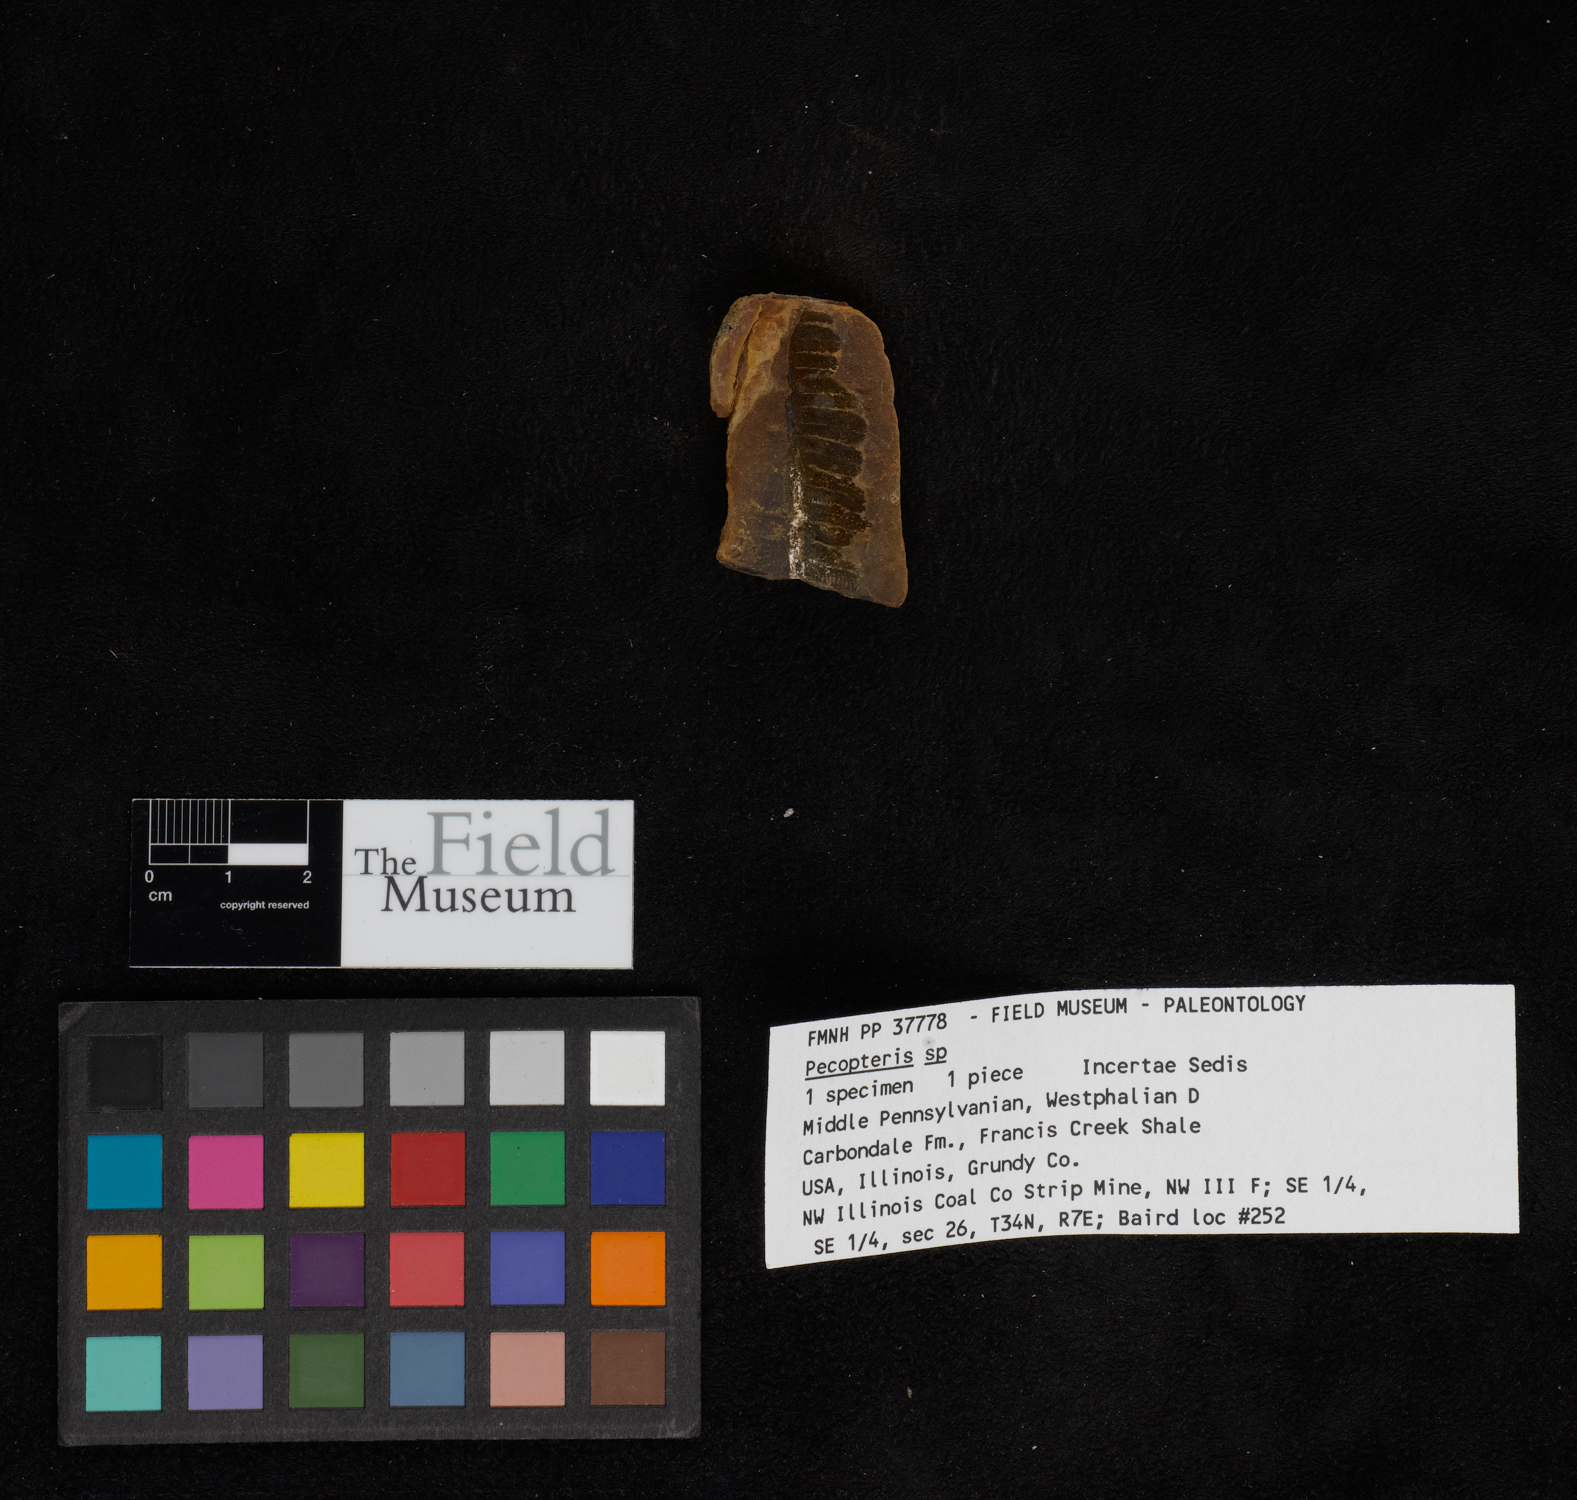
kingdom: Plantae
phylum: Tracheophyta
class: Polypodiopsida
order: Marattiales
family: Asterothecaceae
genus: Pecopteris
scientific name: Pecopteris
